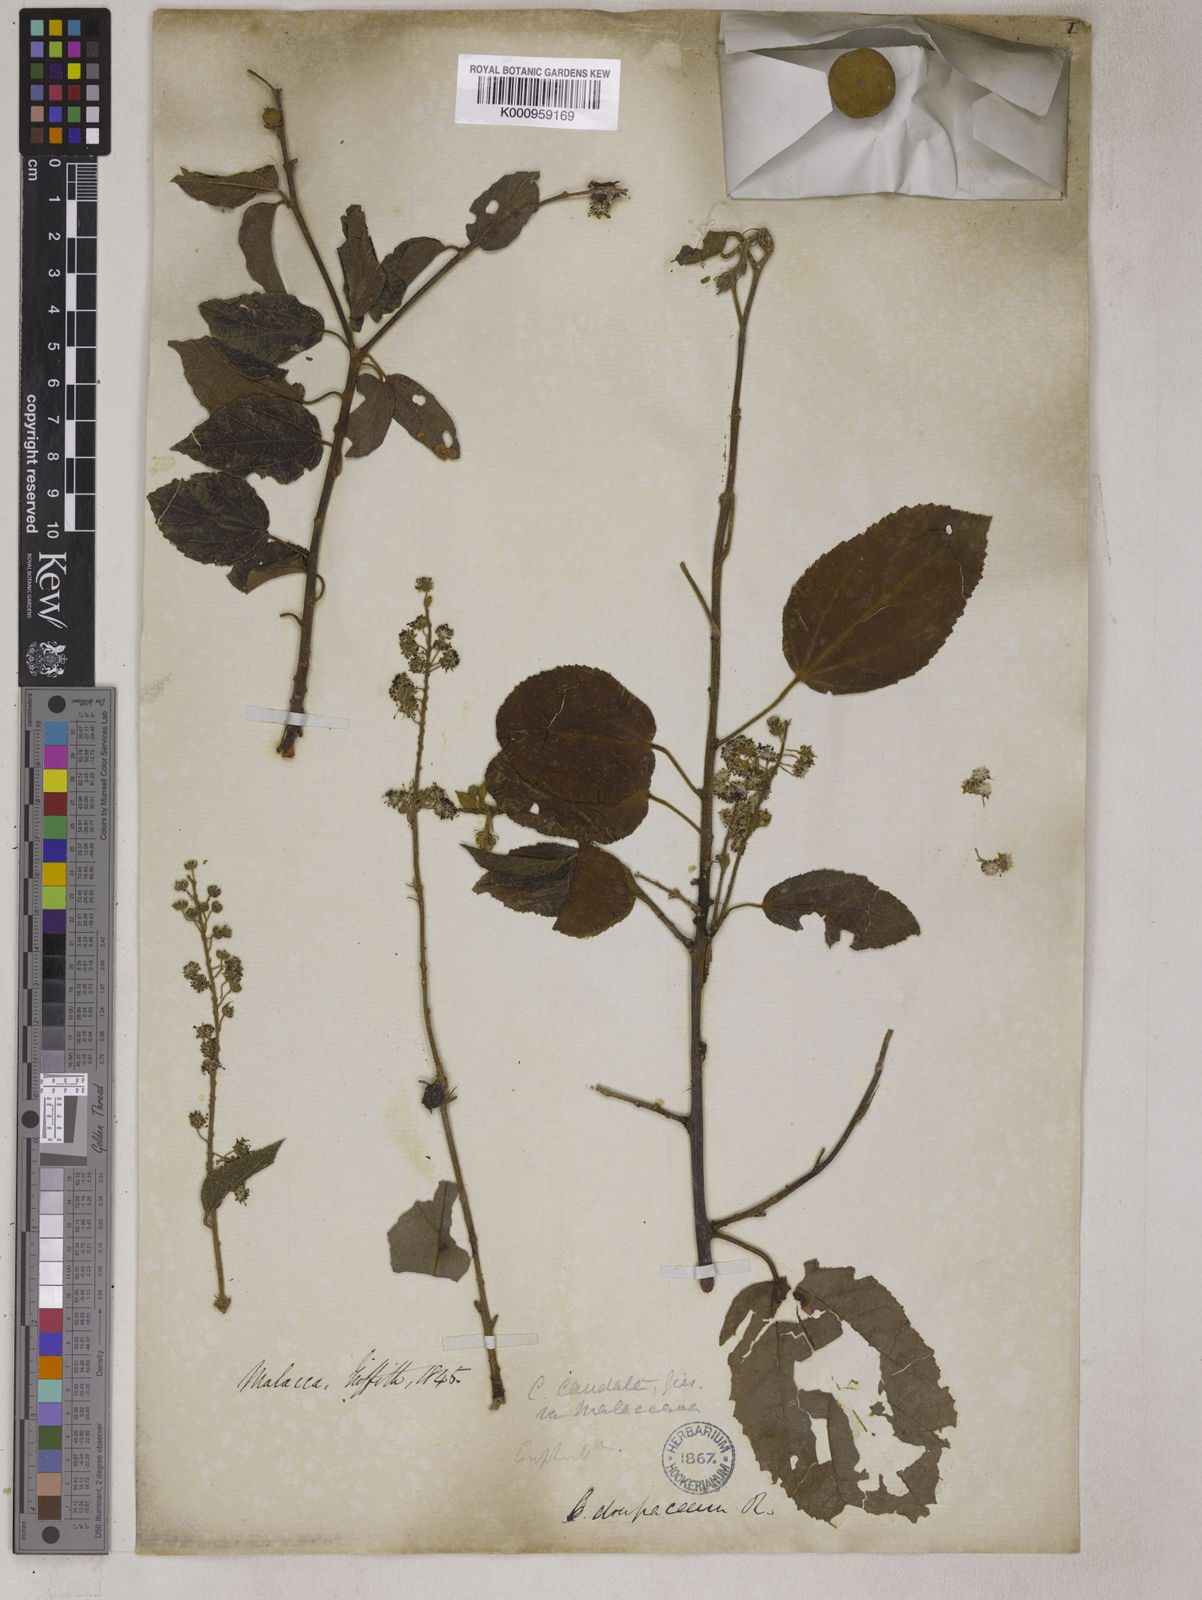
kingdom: Plantae
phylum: Tracheophyta
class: Magnoliopsida
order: Malpighiales
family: Euphorbiaceae
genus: Croton
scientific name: Croton caudatus
